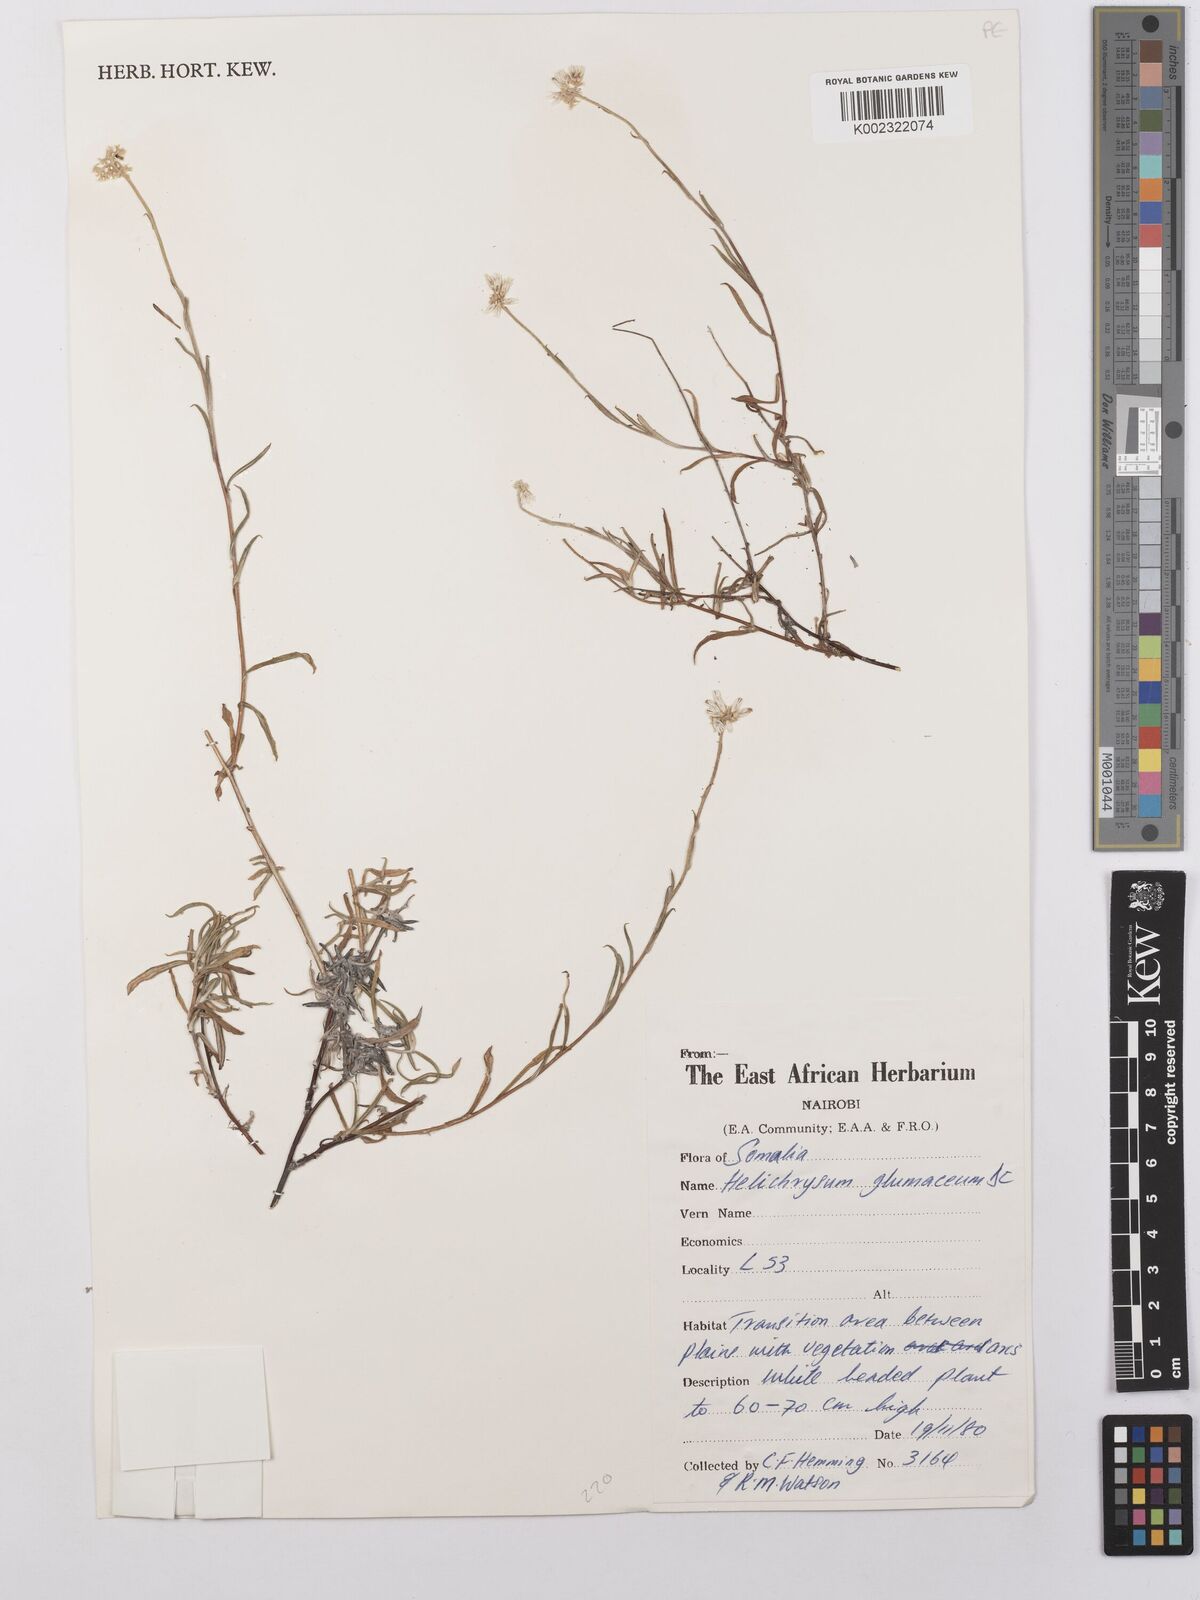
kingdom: Plantae
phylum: Tracheophyta
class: Magnoliopsida
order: Asterales
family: Asteraceae
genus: Helichrysum
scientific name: Helichrysum glumaceum
